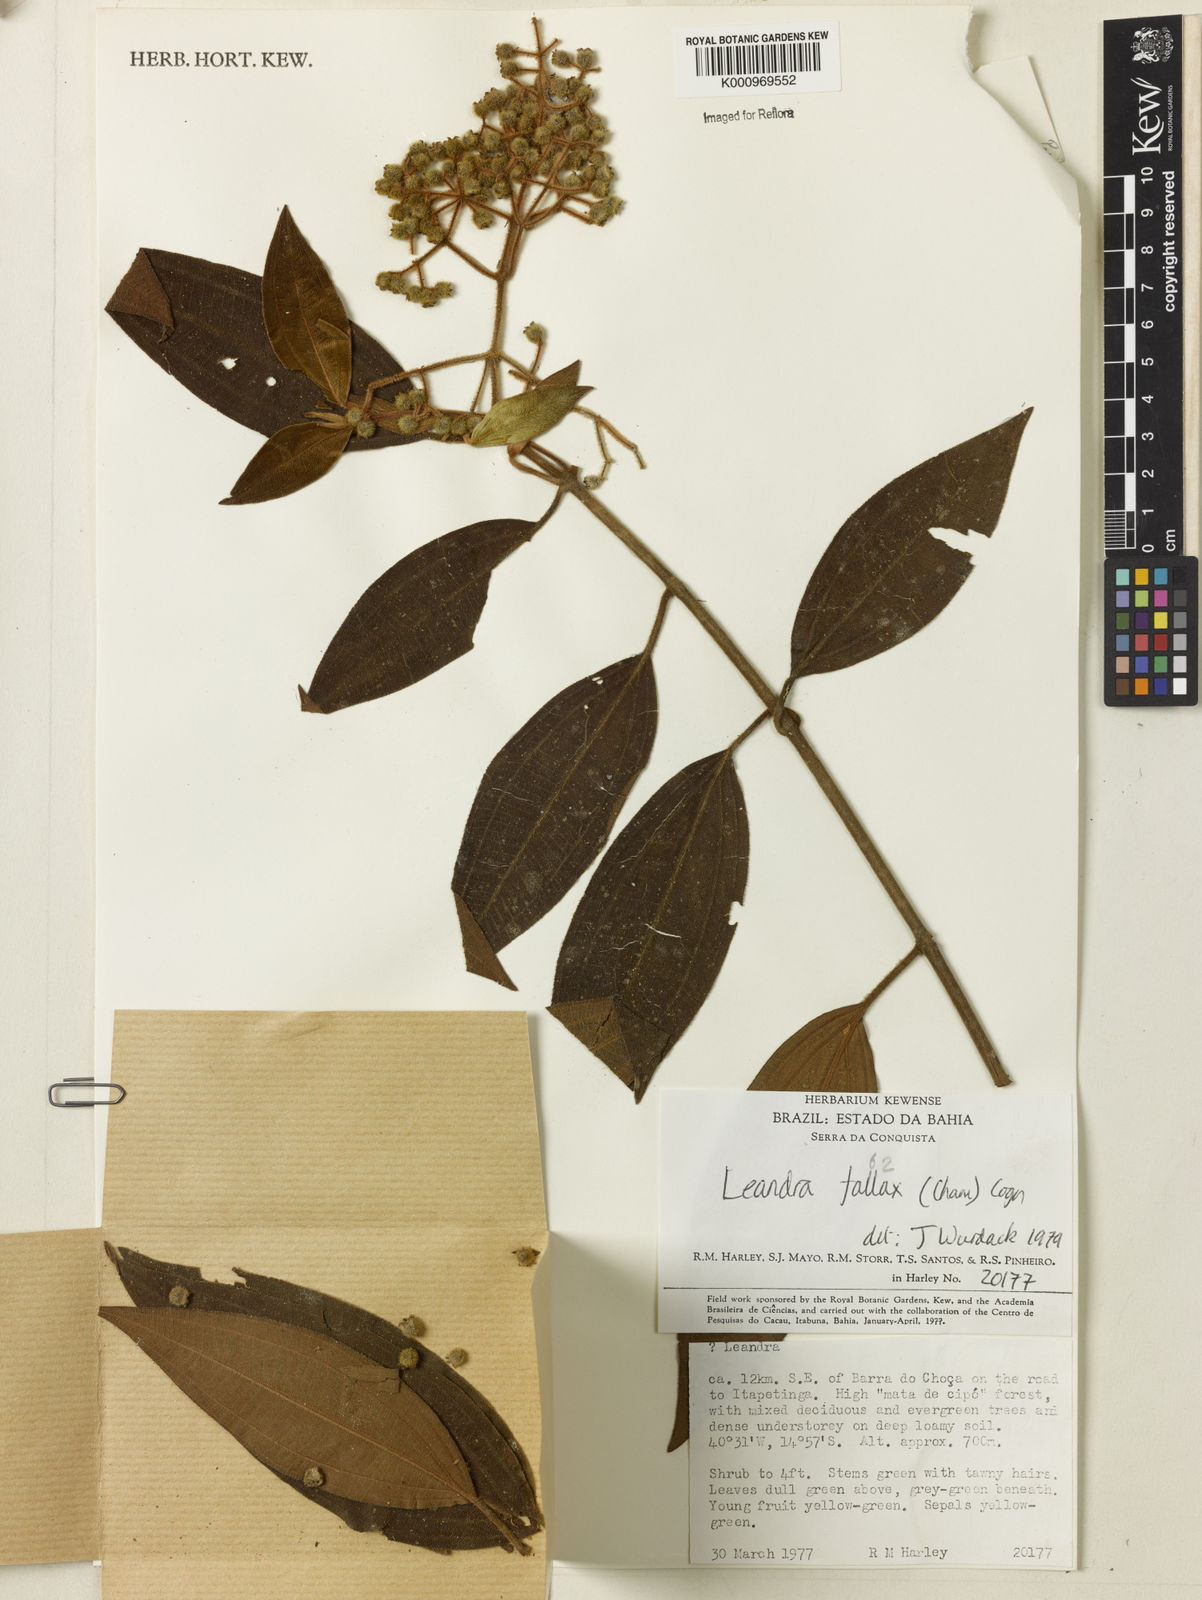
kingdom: Plantae
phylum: Tracheophyta
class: Magnoliopsida
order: Myrtales
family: Melastomataceae
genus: Miconia
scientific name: Miconia leafallax
